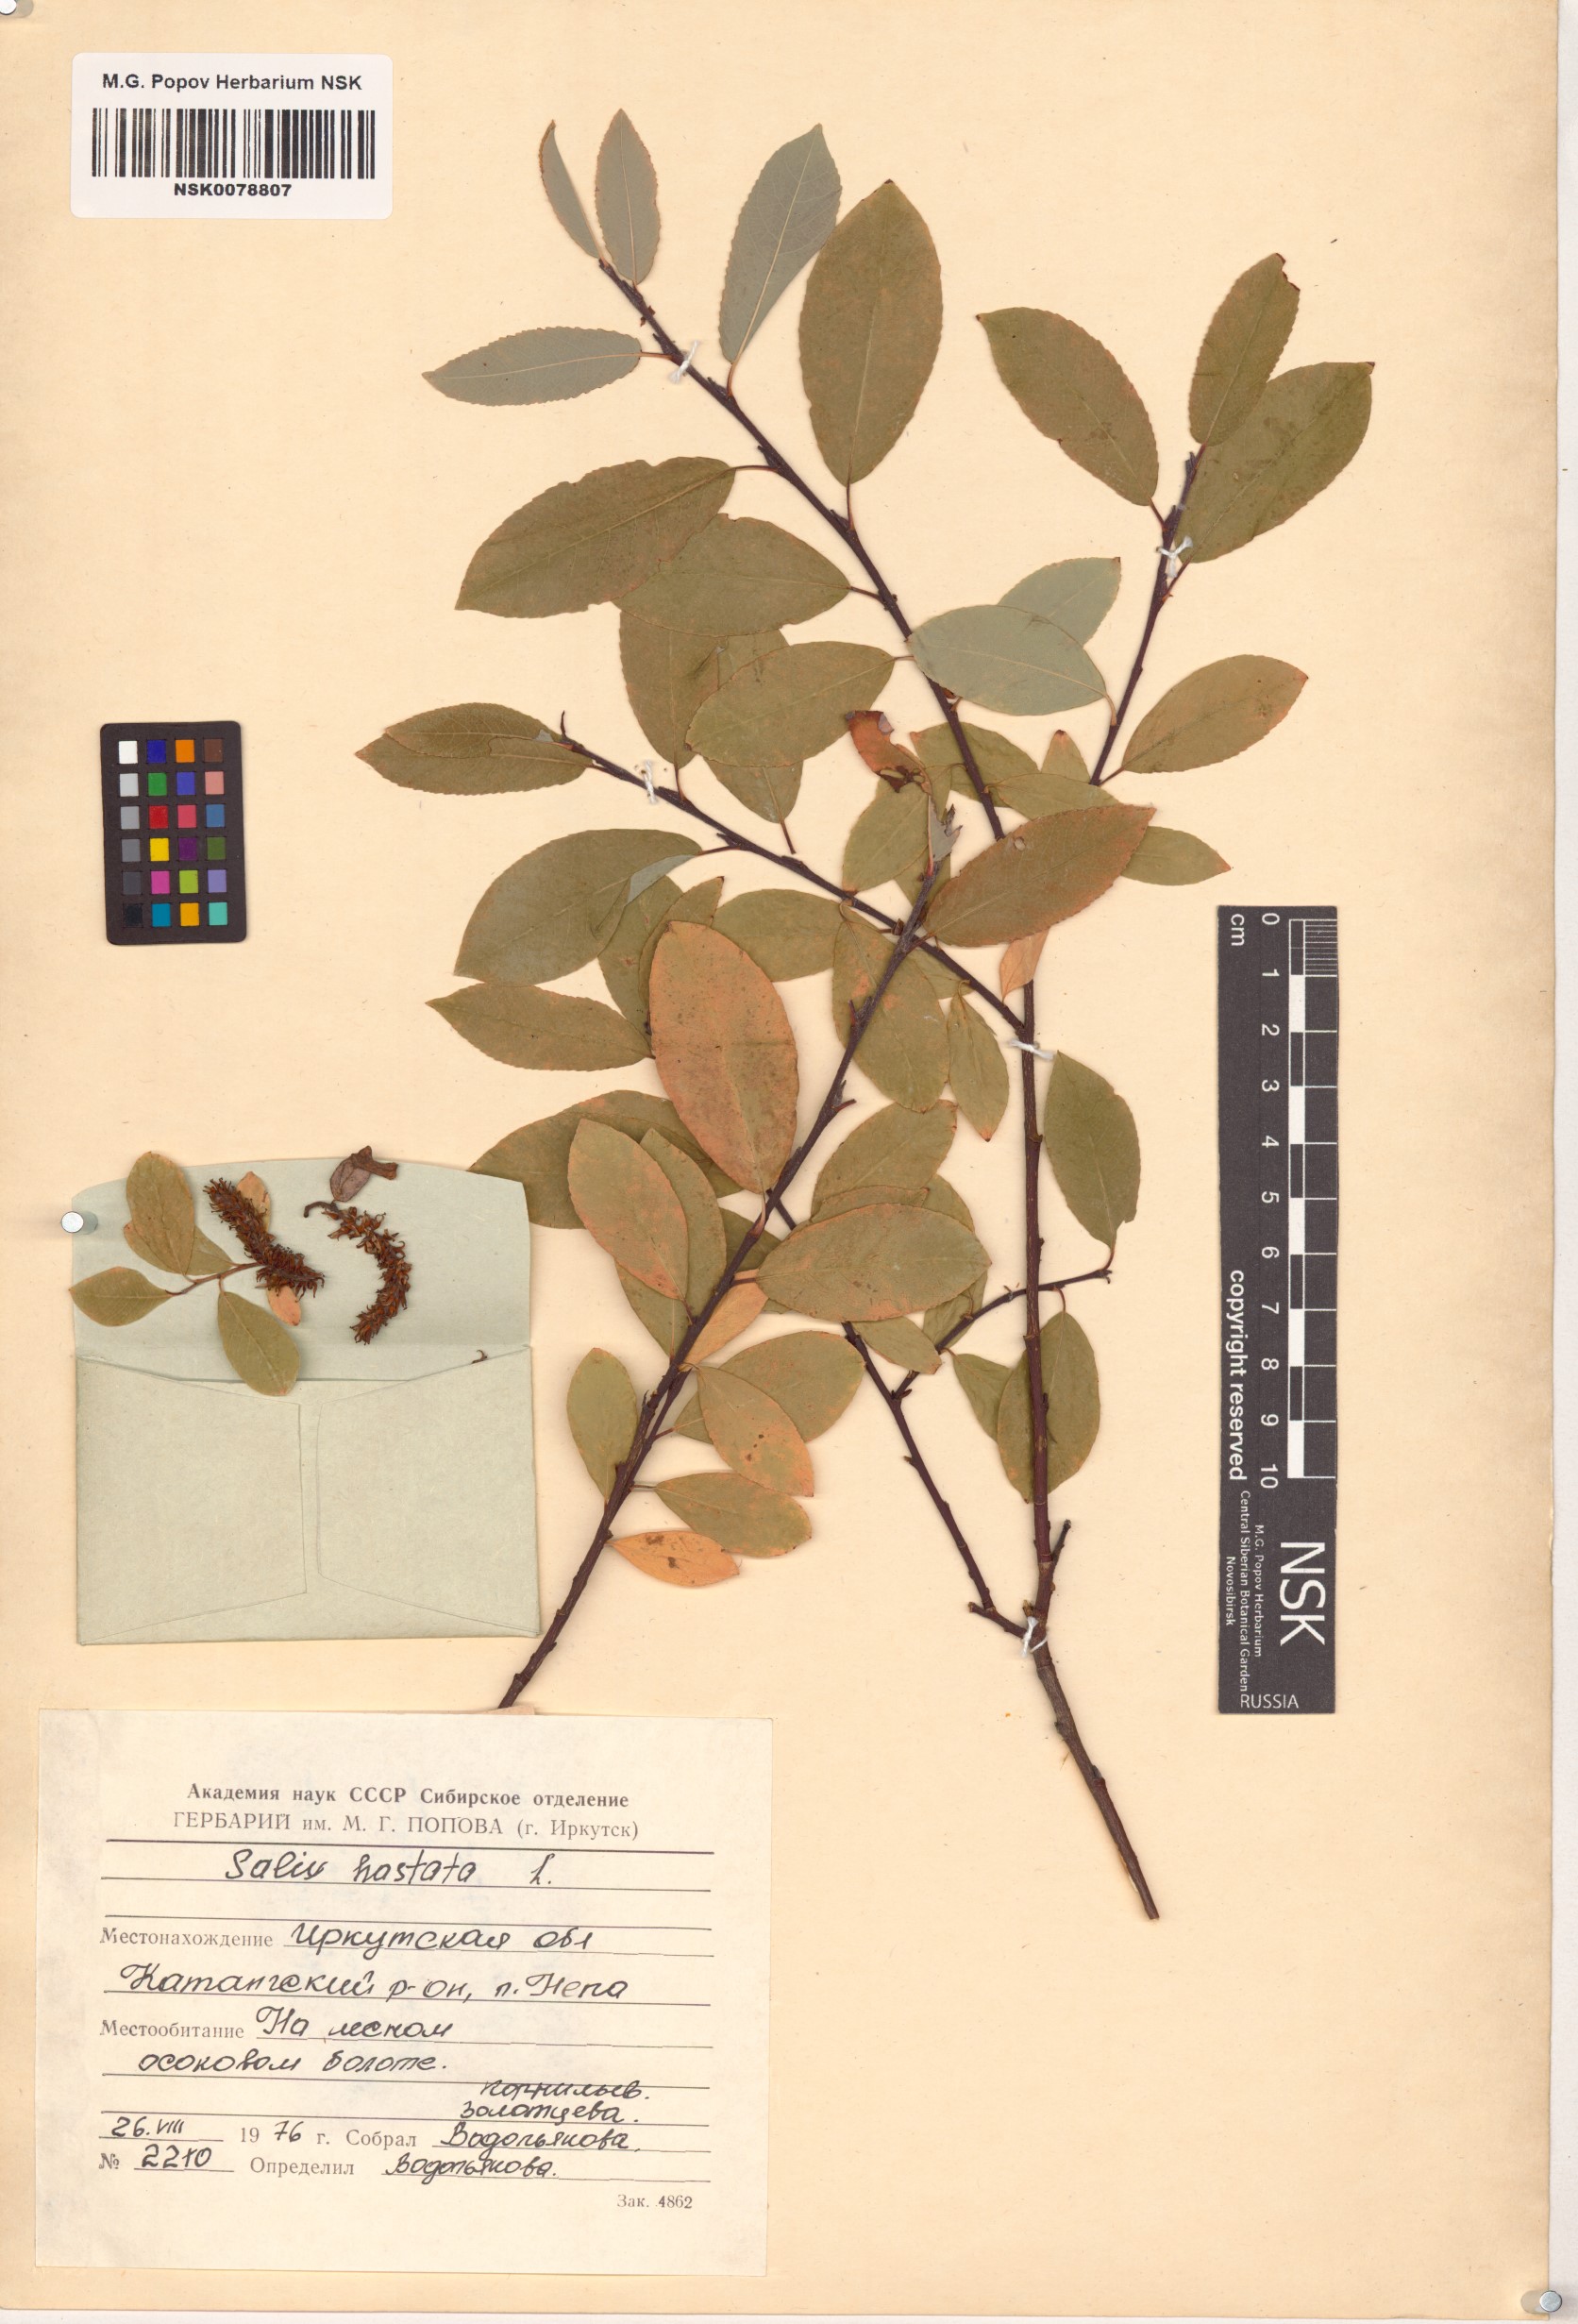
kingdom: Plantae
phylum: Tracheophyta
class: Magnoliopsida
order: Malpighiales
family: Salicaceae
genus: Salix
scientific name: Salix hastata
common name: Halberd willow
